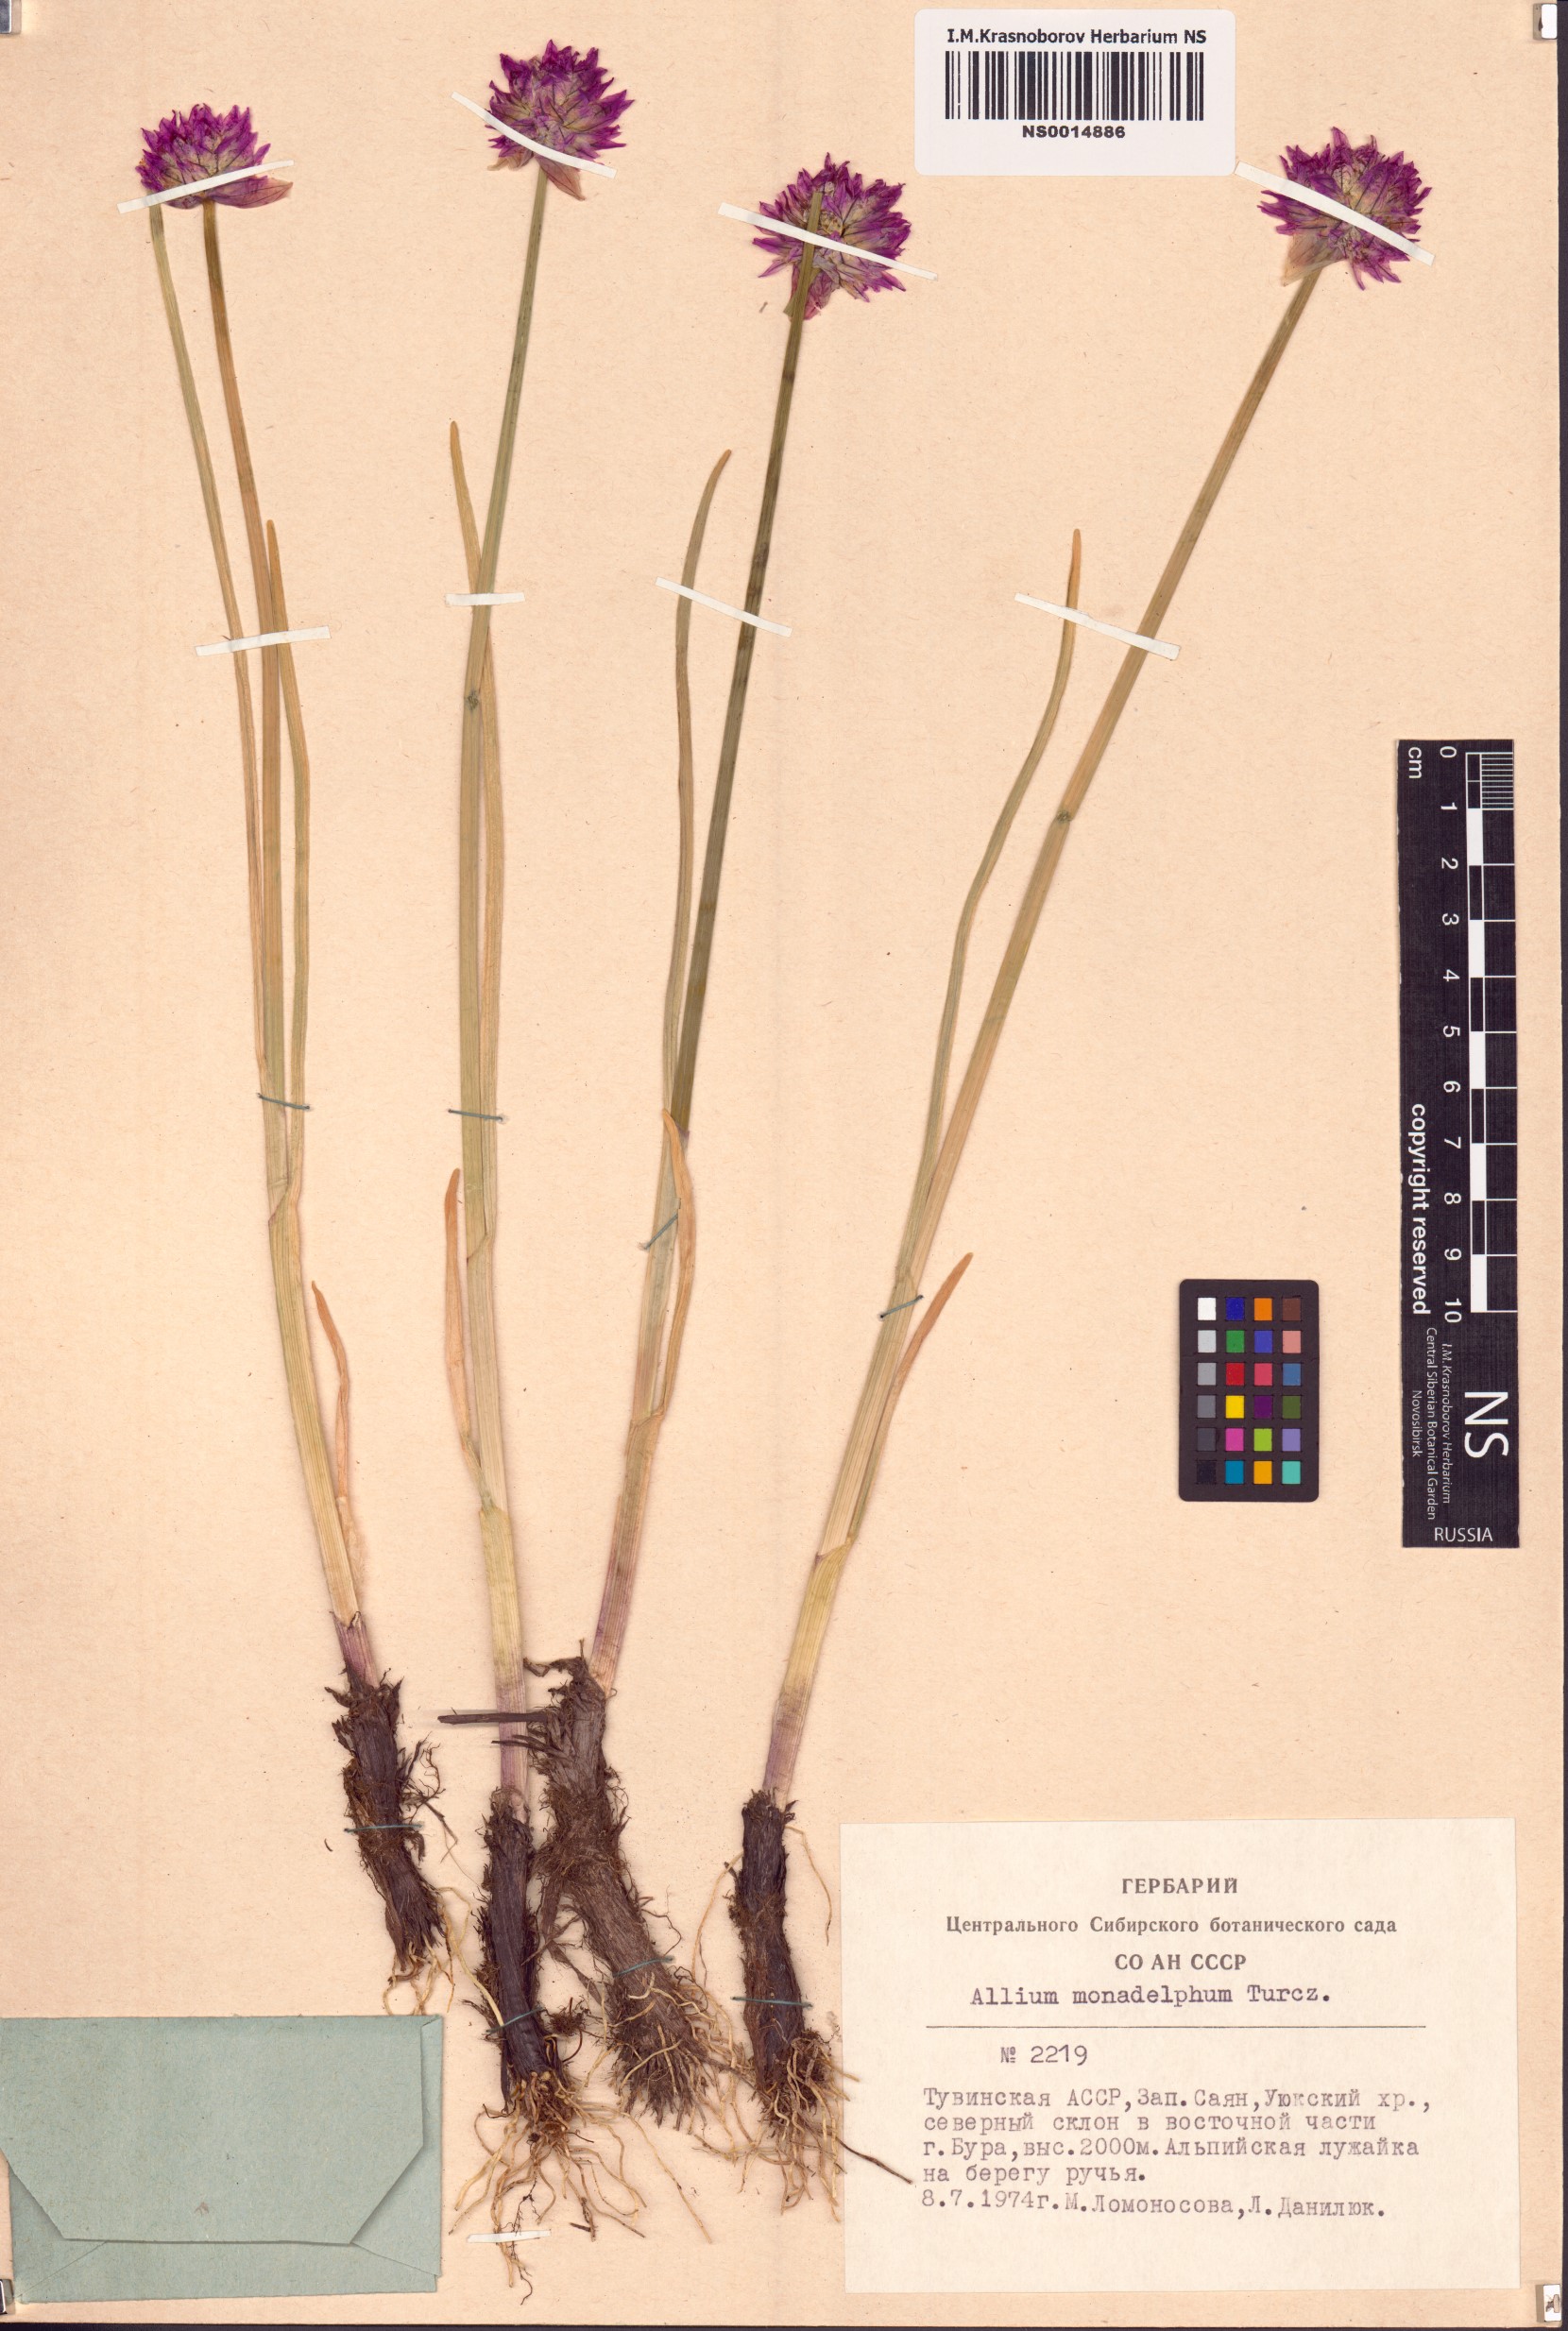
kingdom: Plantae
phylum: Tracheophyta
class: Liliopsida
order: Asparagales
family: Amaryllidaceae
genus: Allium
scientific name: Allium atrosanguineum
